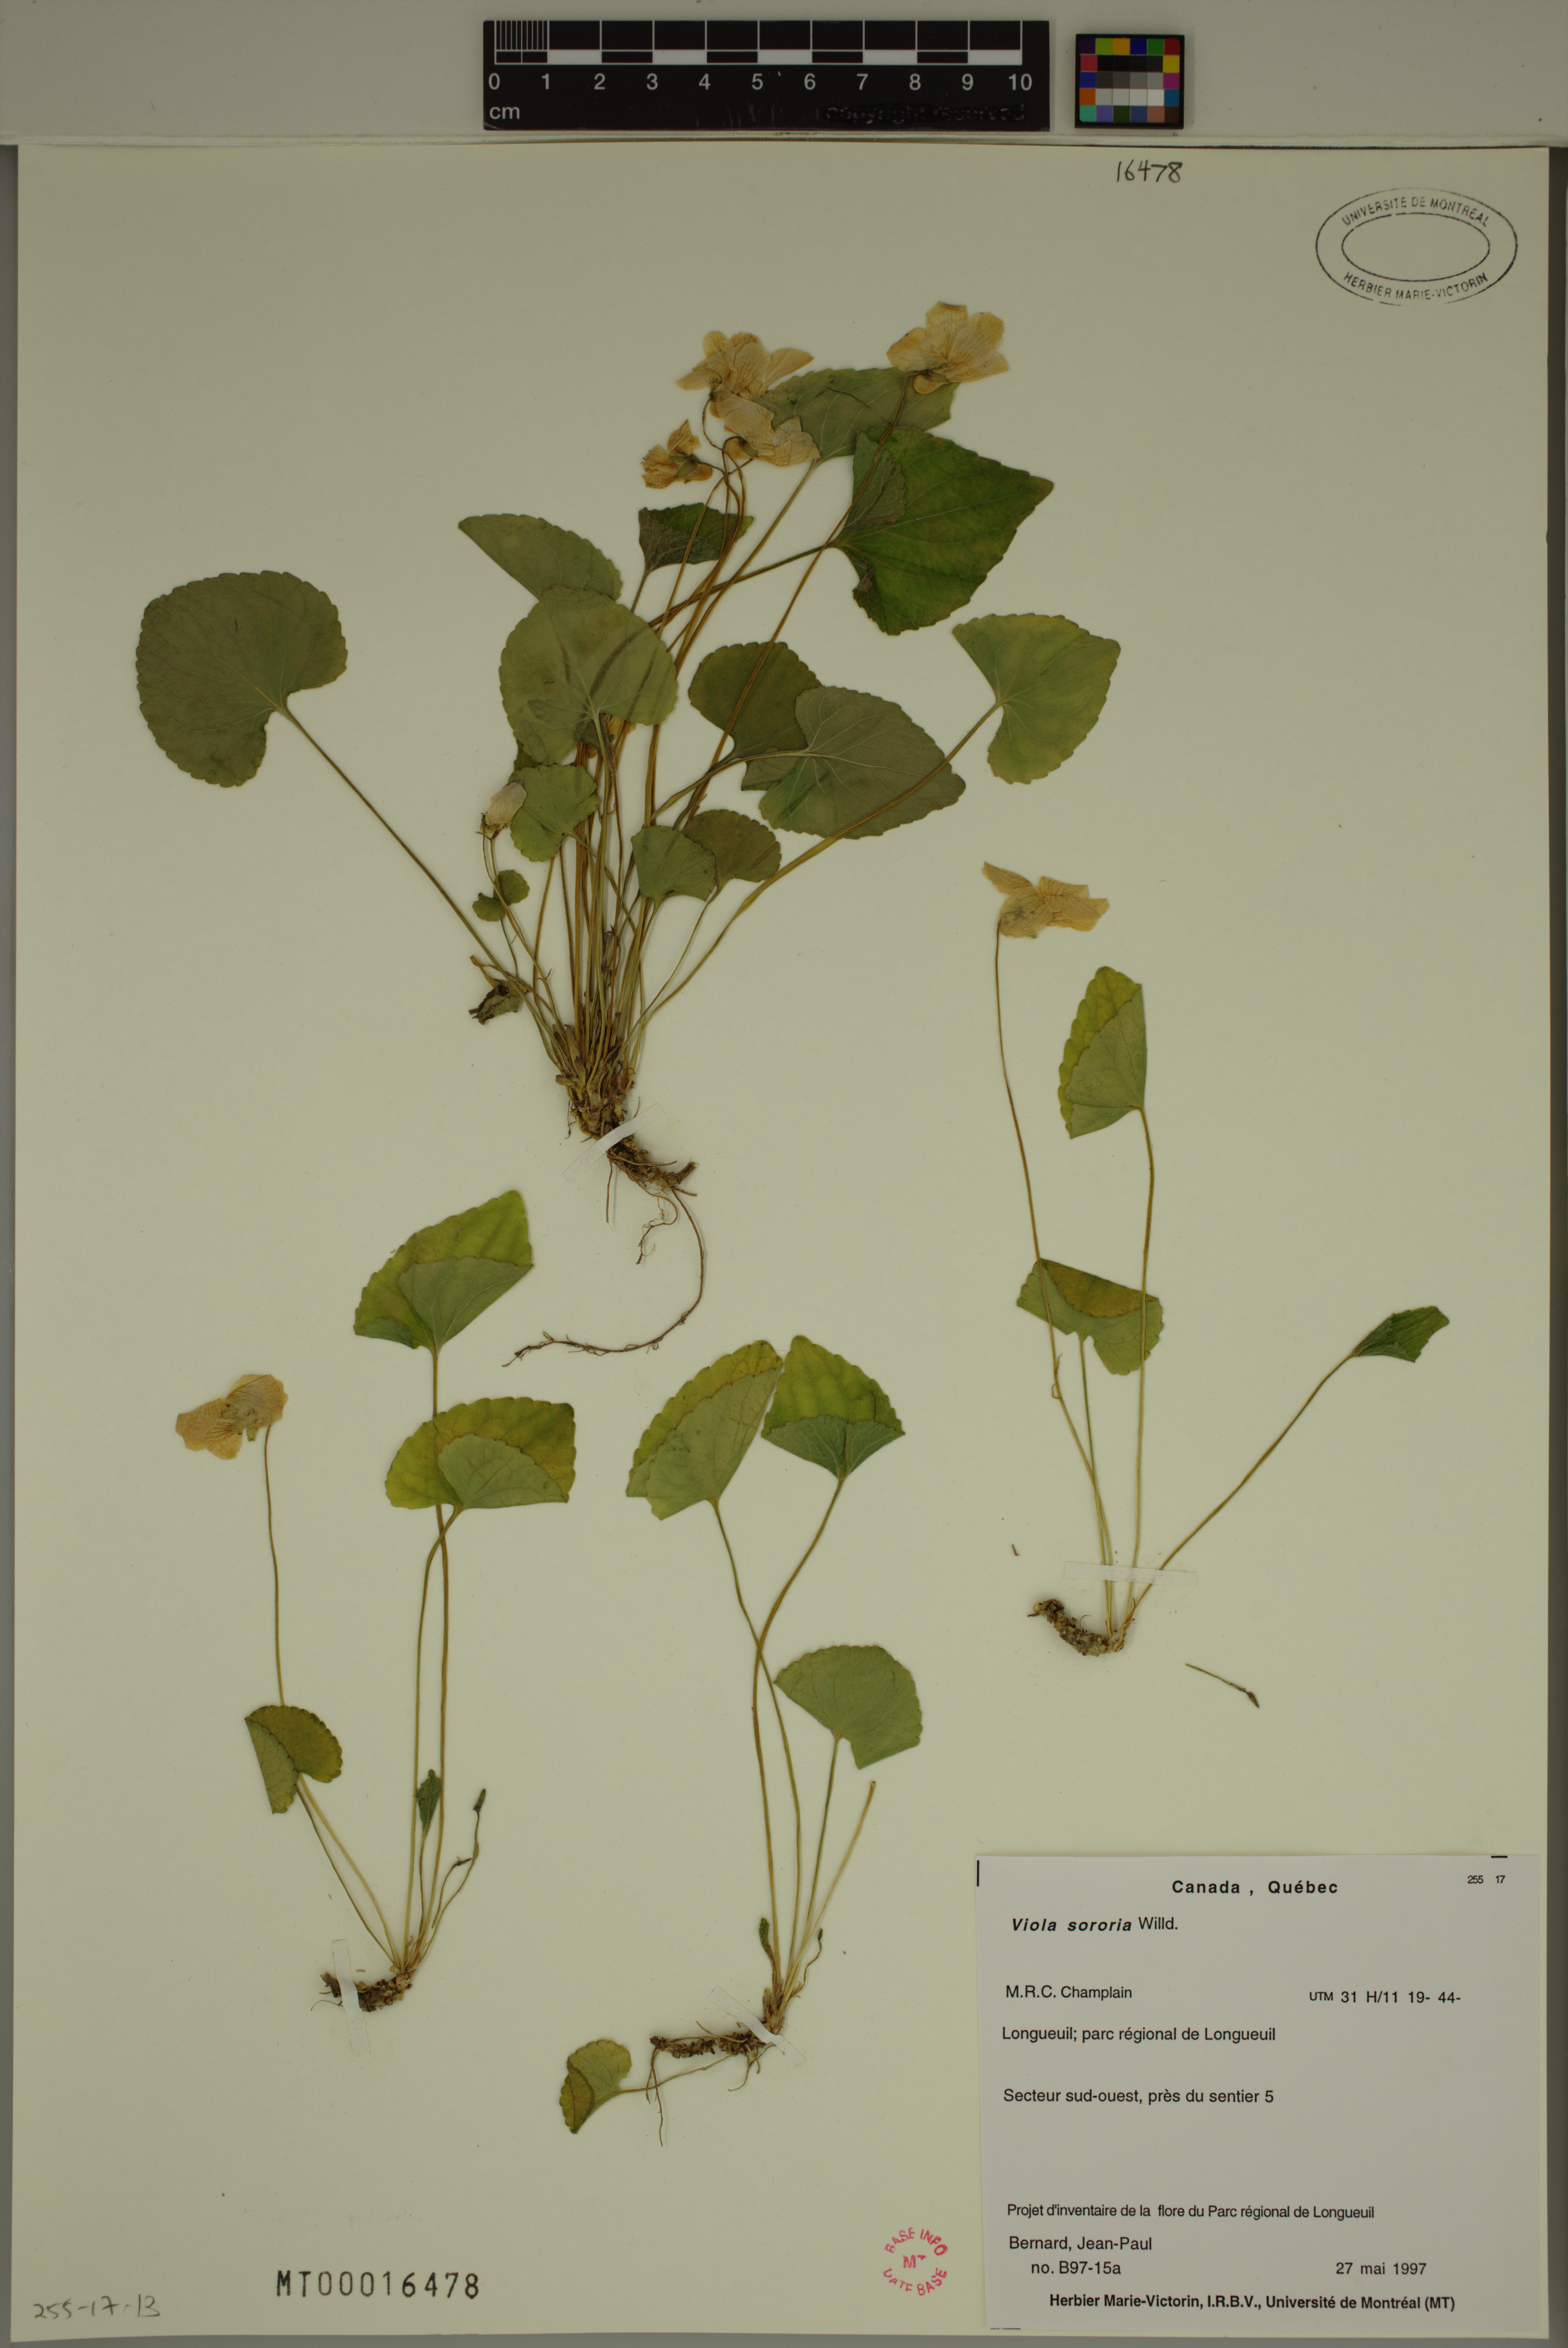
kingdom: Plantae
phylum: Tracheophyta
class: Magnoliopsida
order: Malpighiales
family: Violaceae
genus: Viola
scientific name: Viola sororia
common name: Dooryard violet
